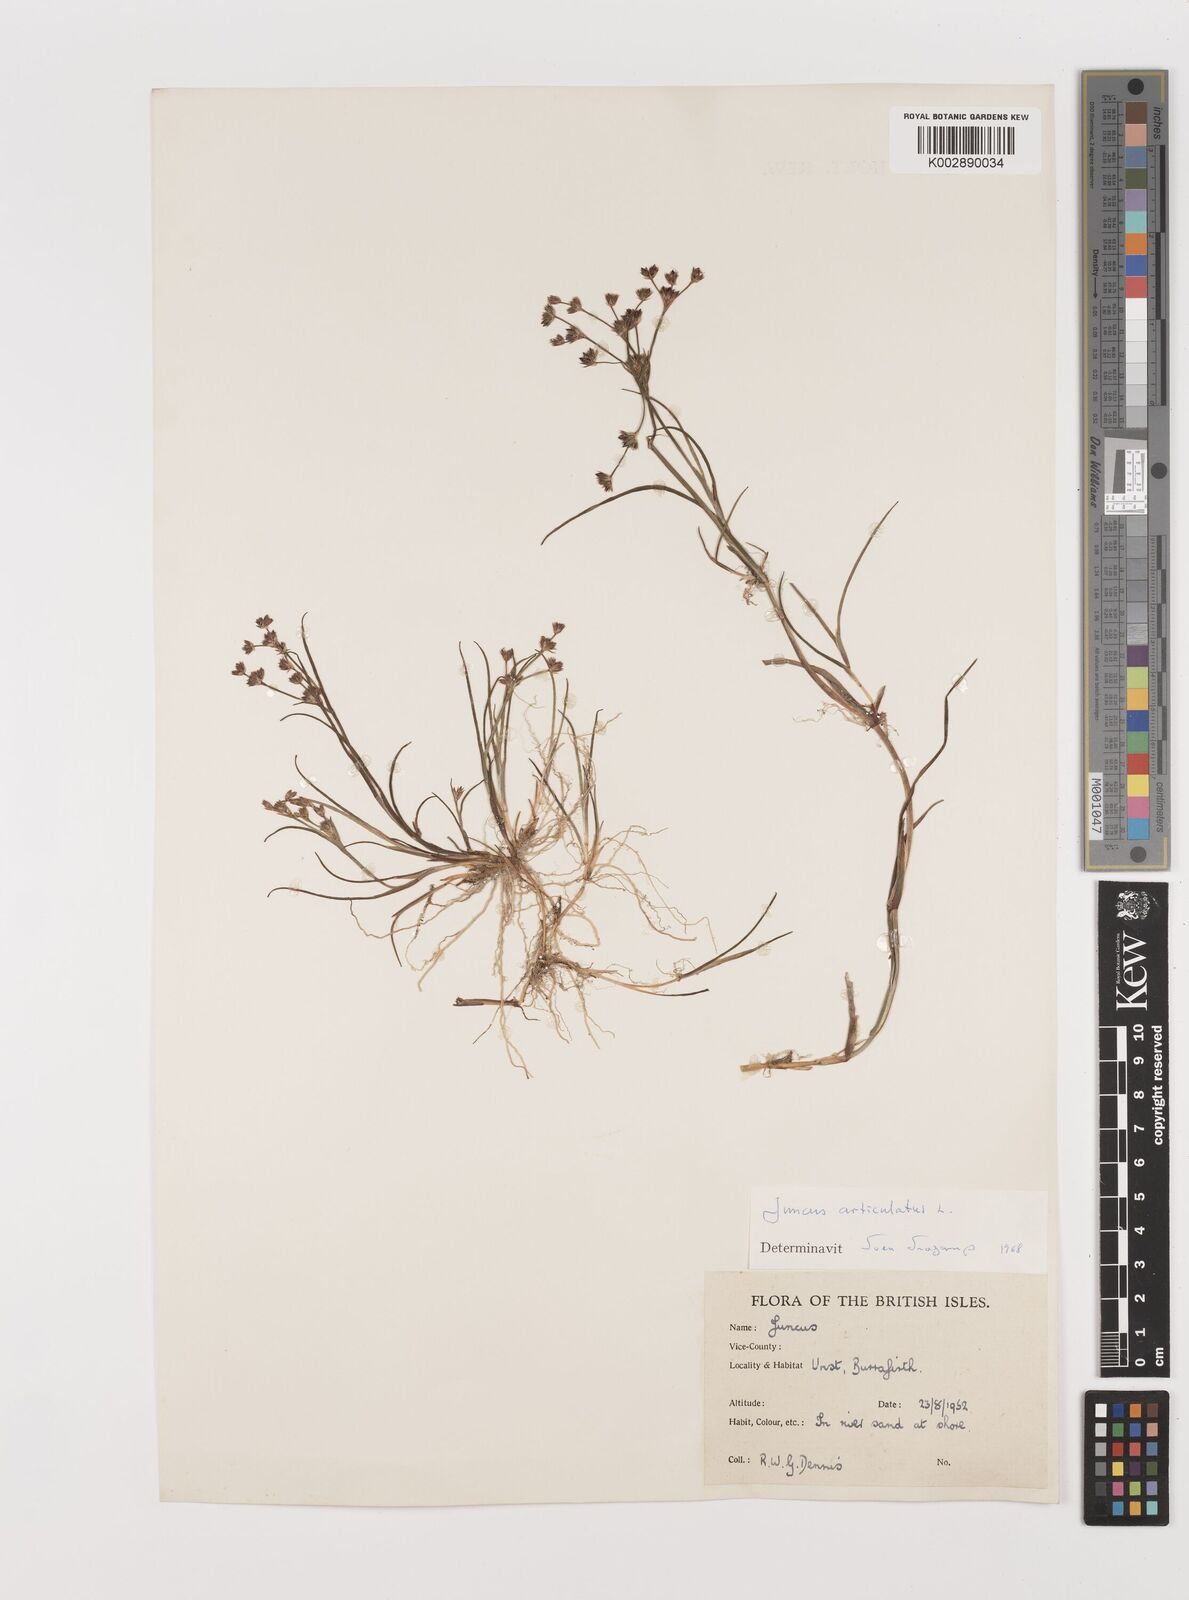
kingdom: Plantae
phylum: Tracheophyta
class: Liliopsida
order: Poales
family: Juncaceae
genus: Juncus
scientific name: Juncus articulatus
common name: Jointed rush
